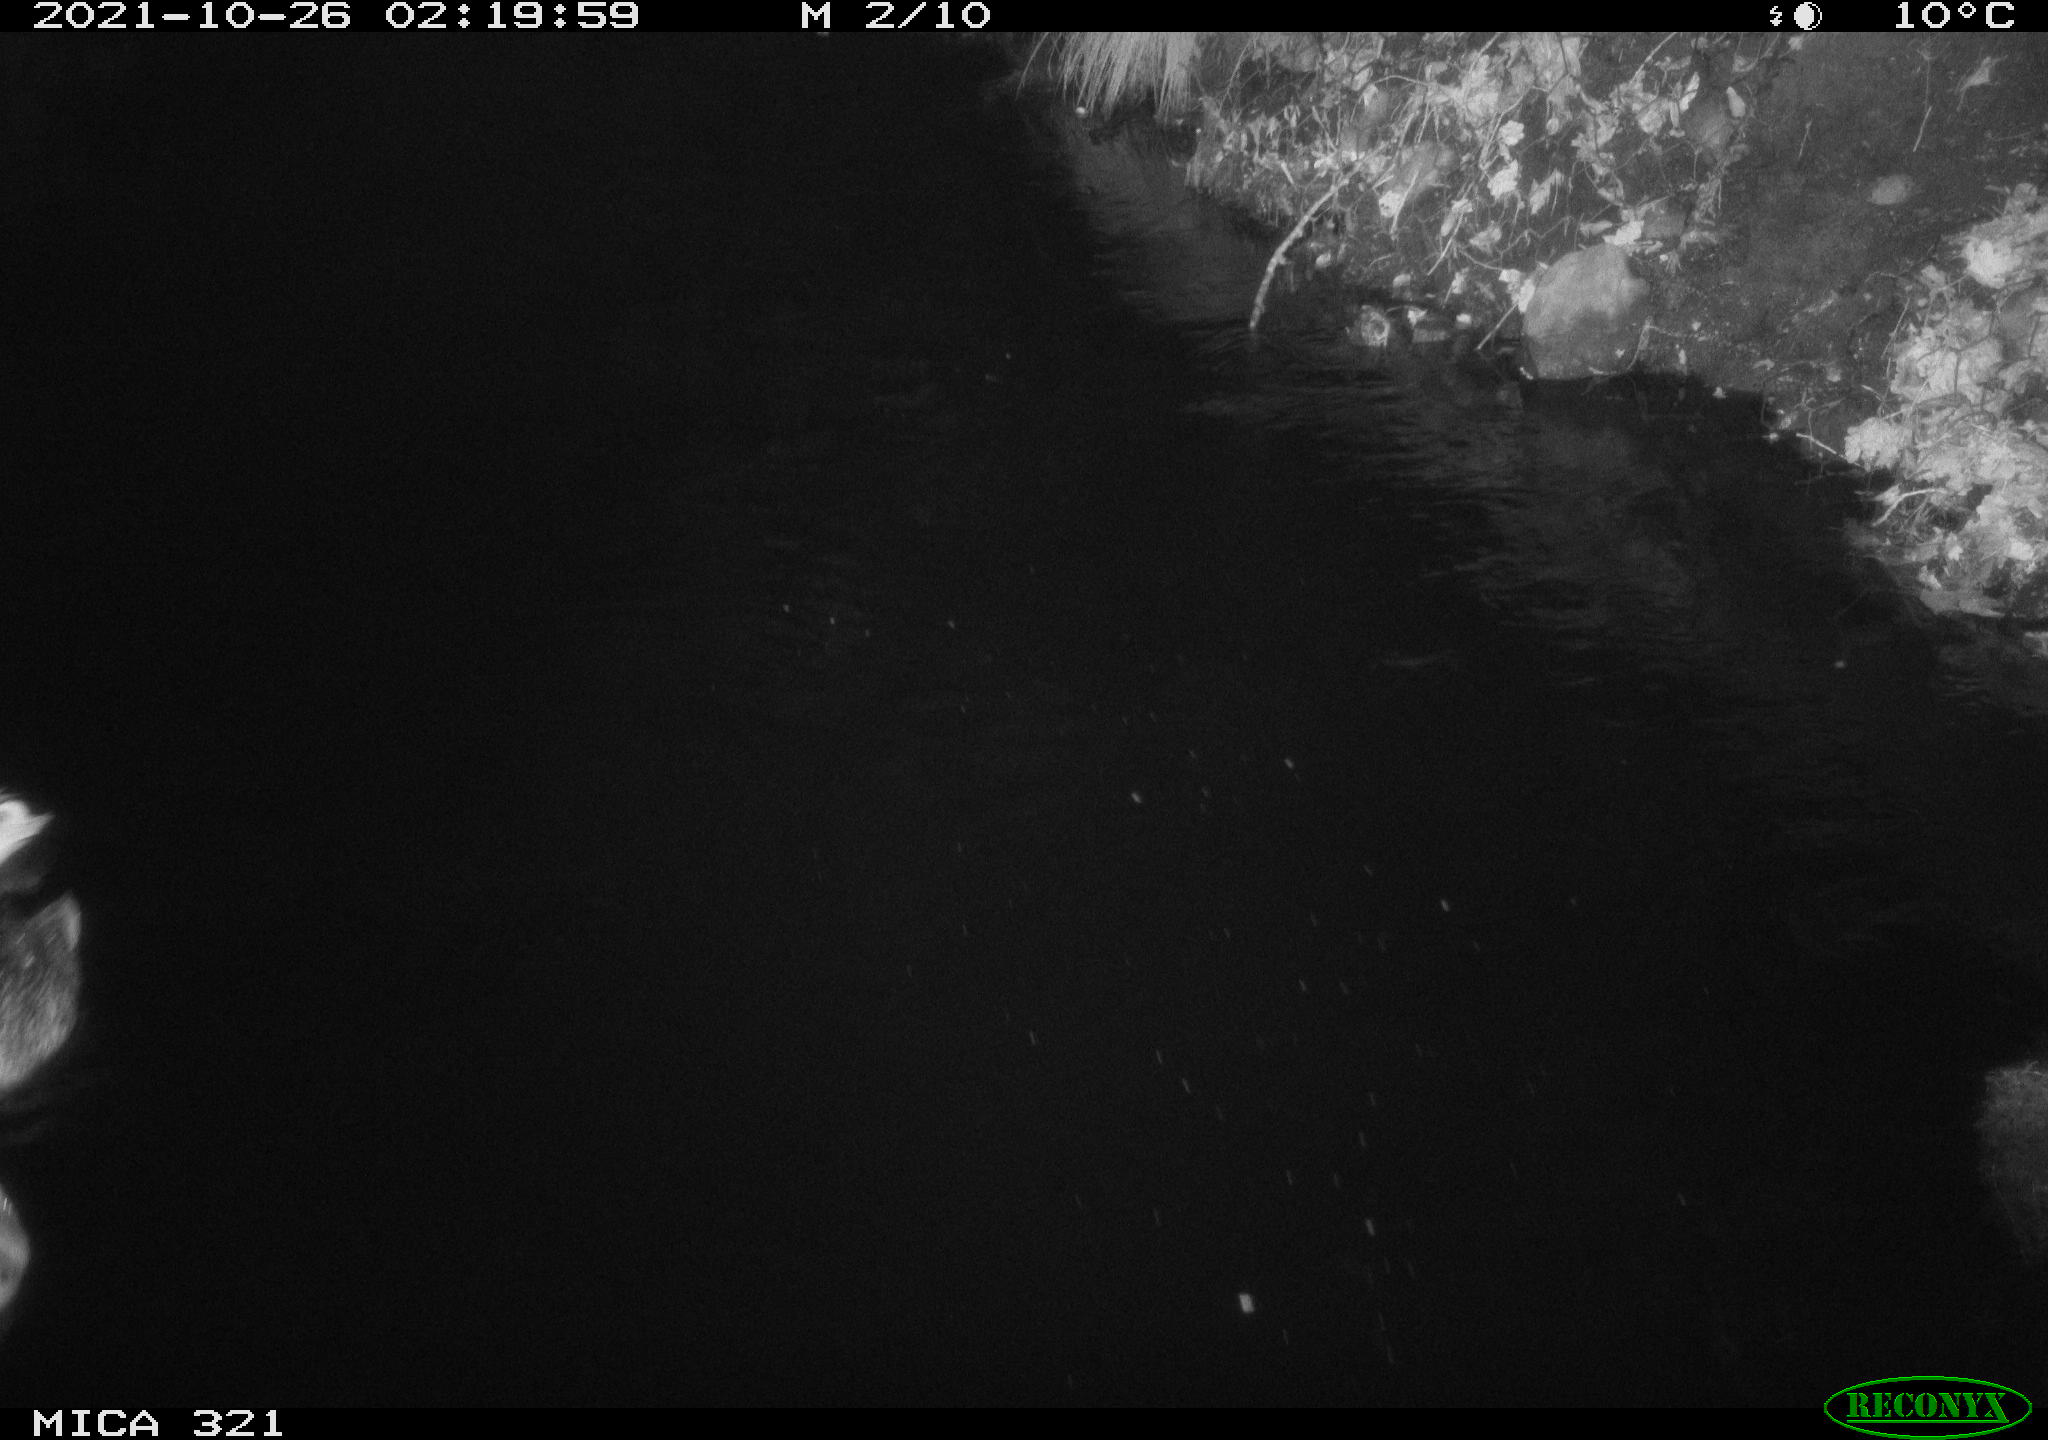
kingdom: Animalia
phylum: Chordata
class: Aves
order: Anseriformes
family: Anatidae
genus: Anas
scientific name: Anas platyrhynchos
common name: Mallard
